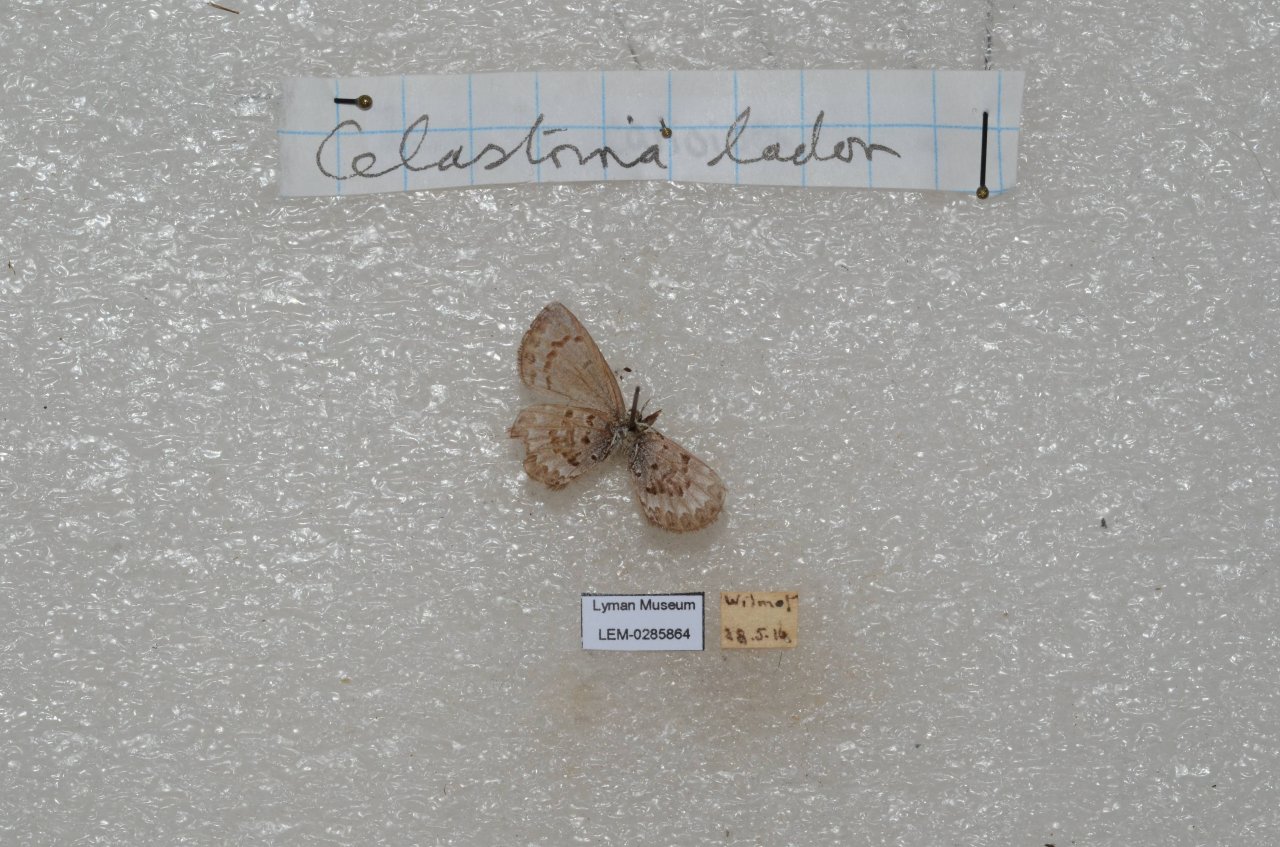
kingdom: Animalia
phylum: Arthropoda
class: Insecta
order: Lepidoptera
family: Lycaenidae
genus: Celastrina
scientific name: Celastrina
